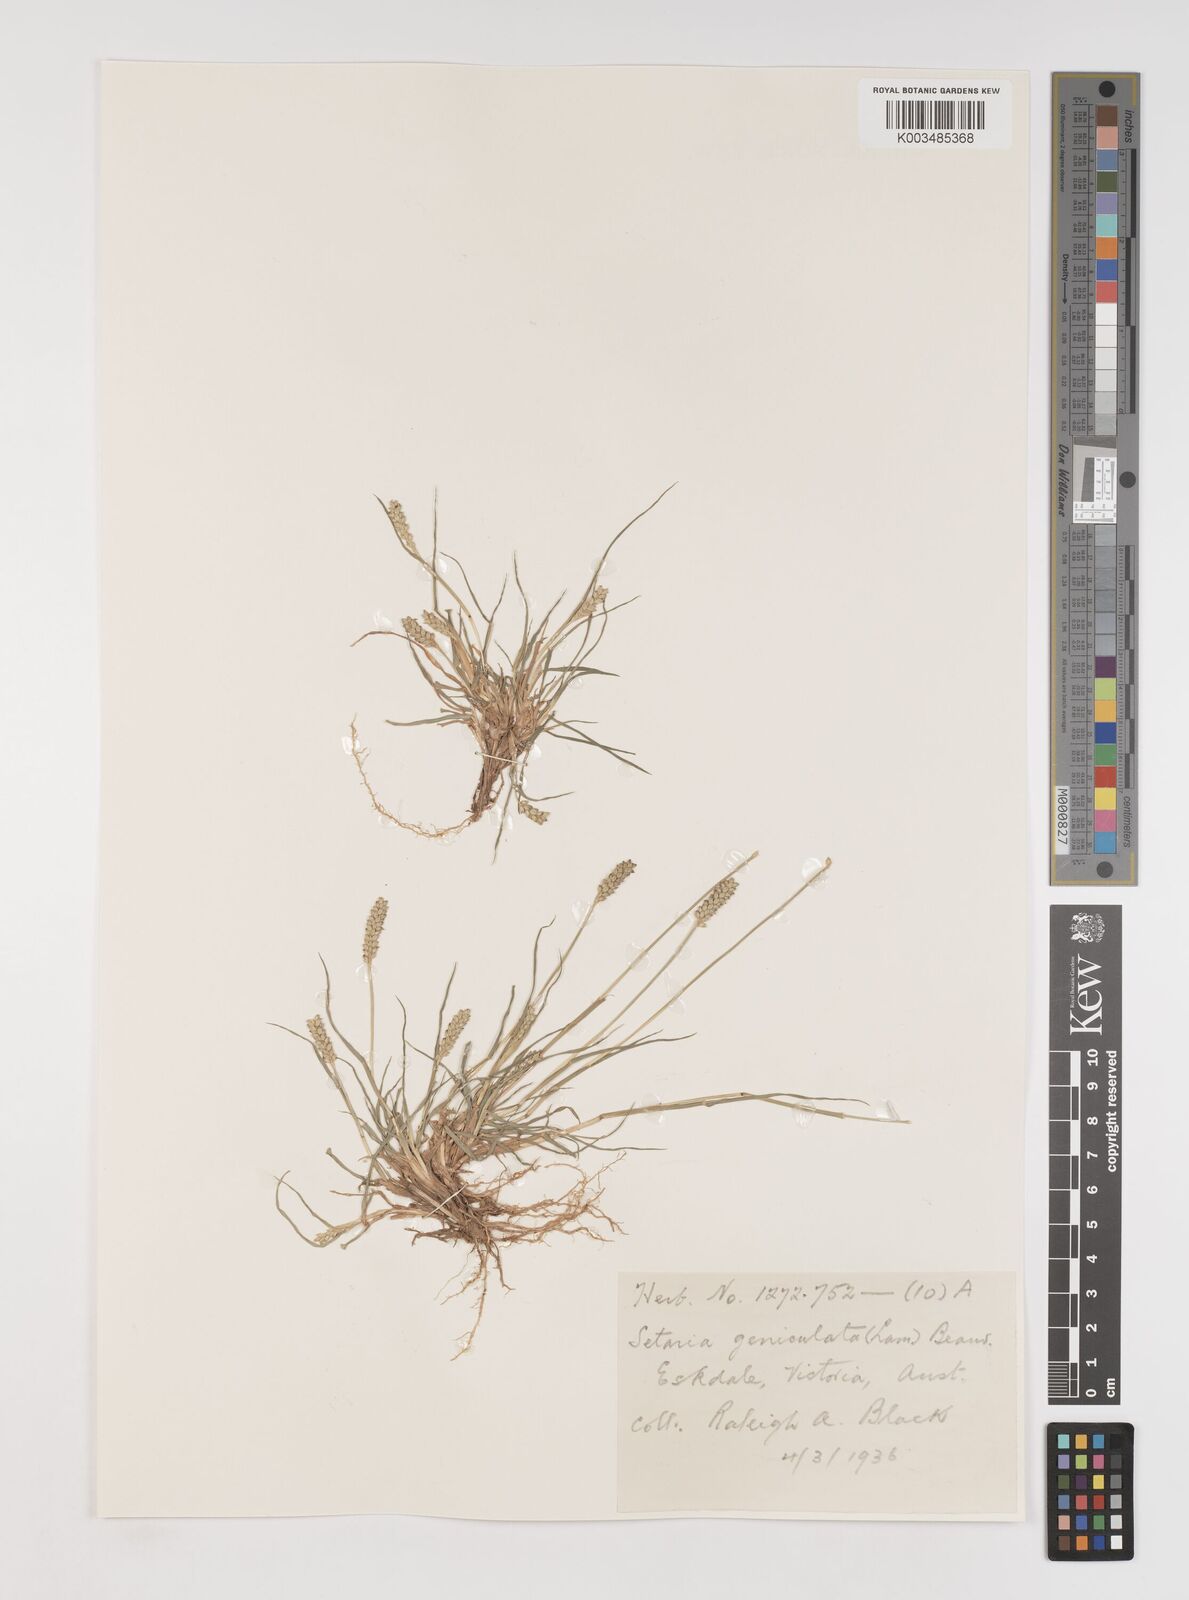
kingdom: Plantae
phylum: Tracheophyta
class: Liliopsida
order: Poales
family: Poaceae
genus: Setaria
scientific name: Setaria parviflora
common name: Knotroot bristle-grass
